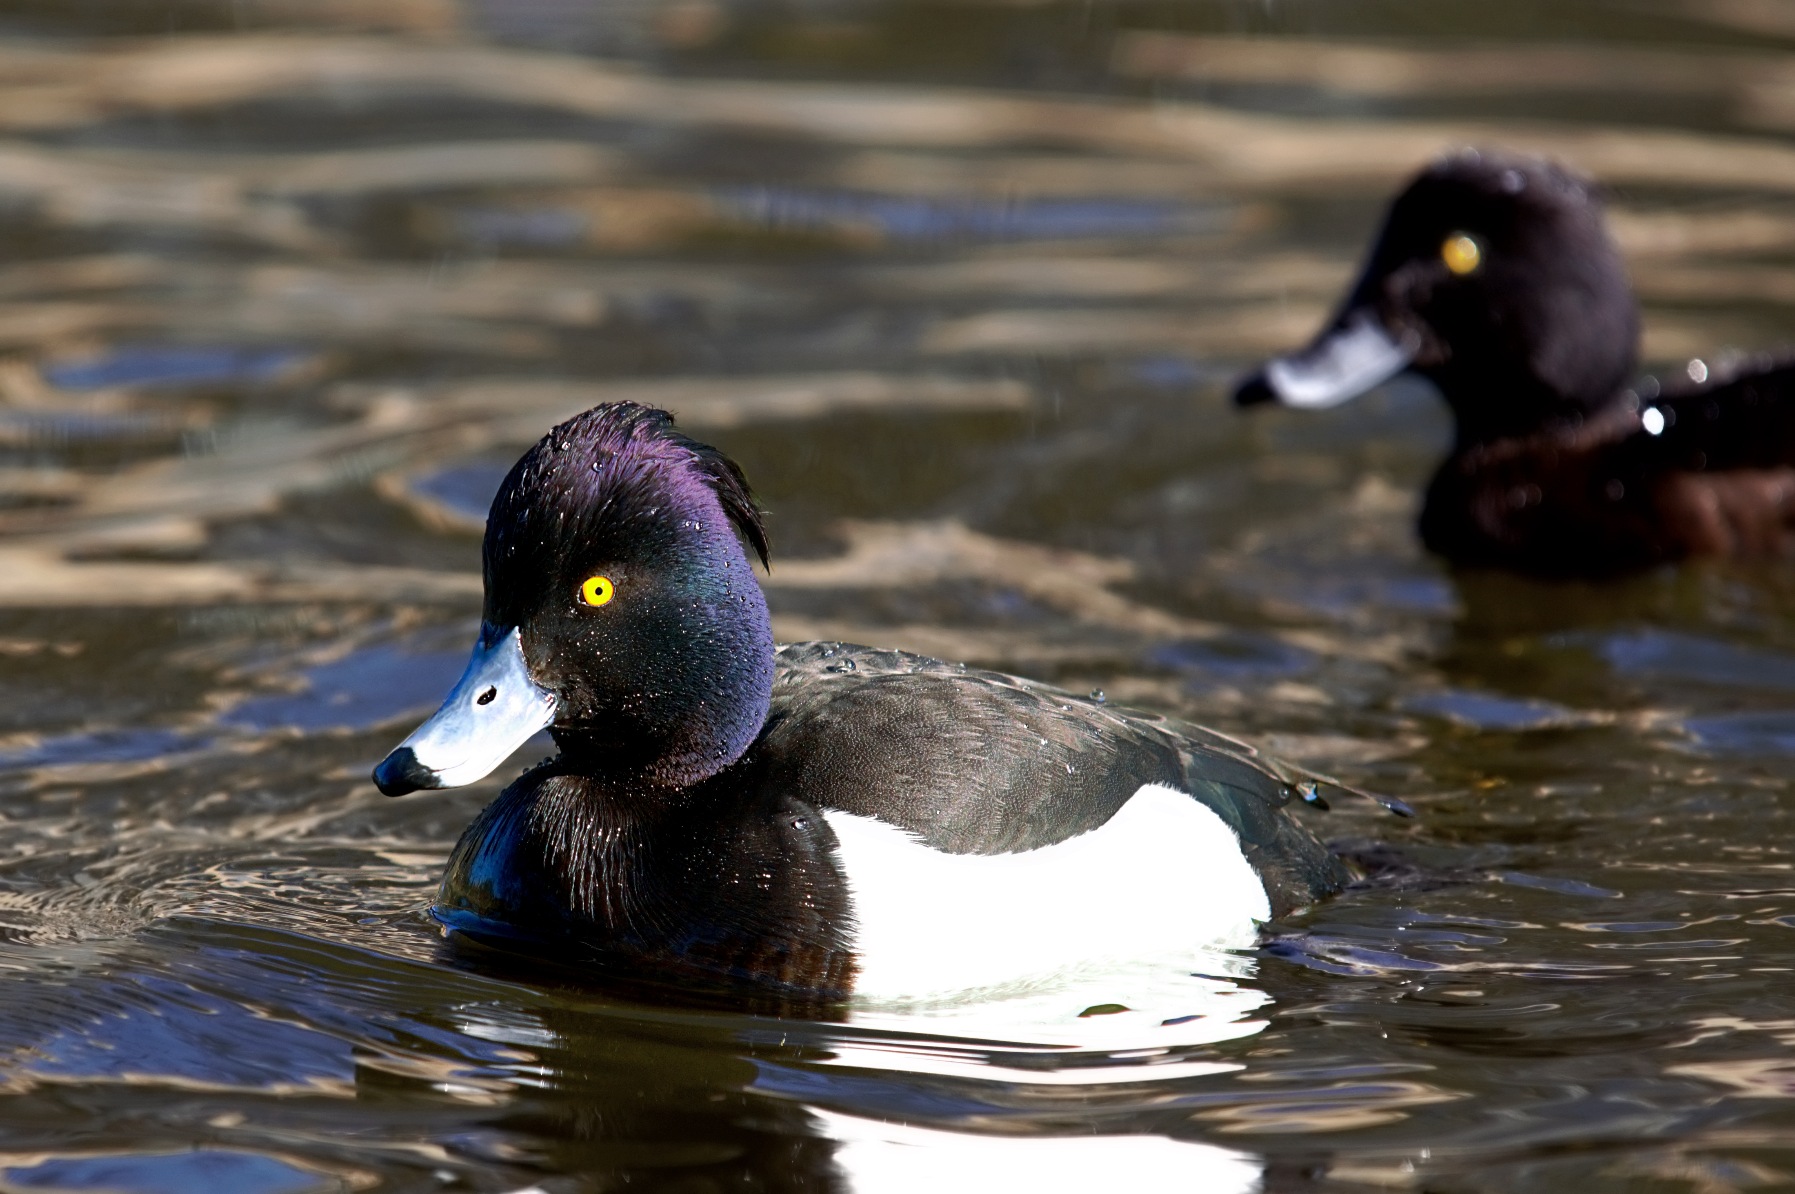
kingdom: Animalia
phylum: Chordata
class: Aves
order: Anseriformes
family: Anatidae
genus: Aythya
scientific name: Aythya fuligula
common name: Troldand
